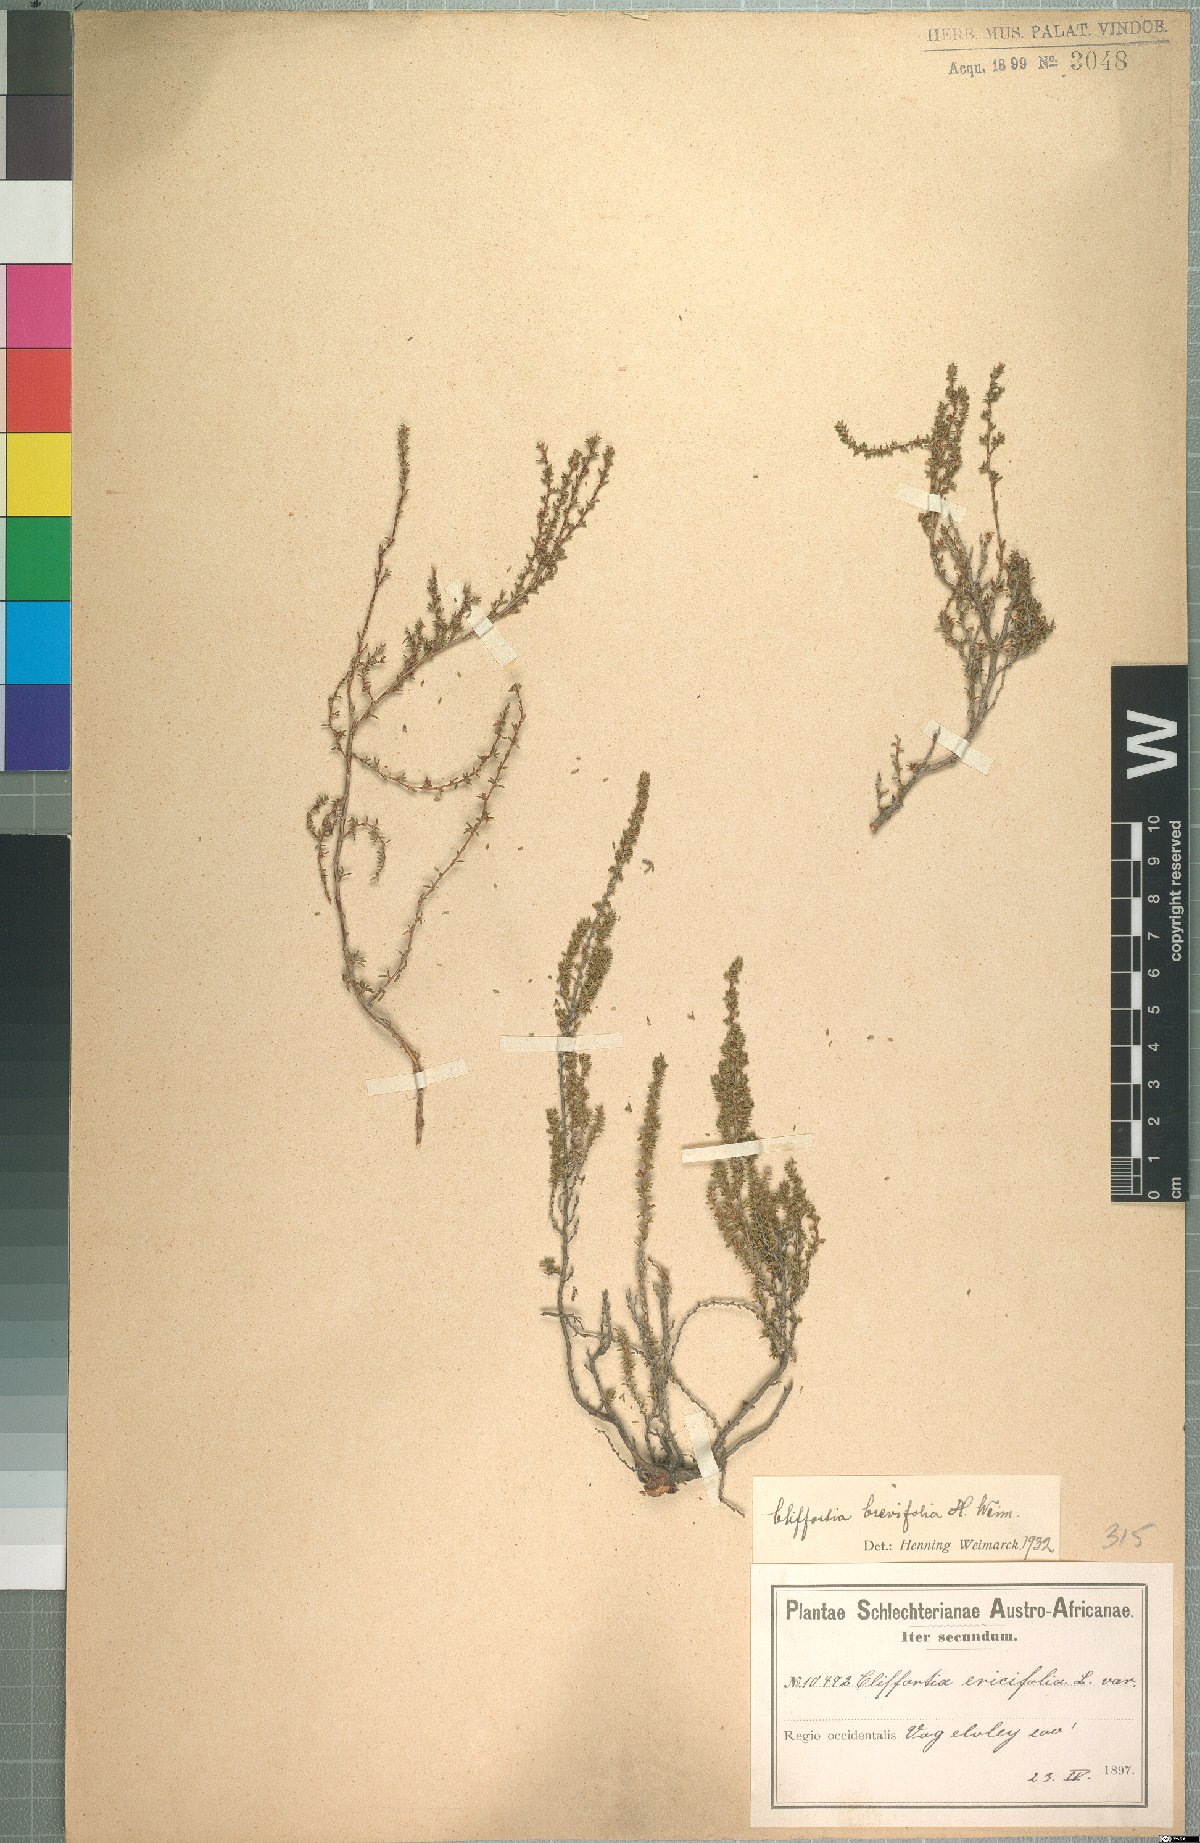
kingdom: Plantae
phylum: Tracheophyta
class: Magnoliopsida
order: Rosales
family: Rosaceae
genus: Cliffortia
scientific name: Cliffortia brevifolia
